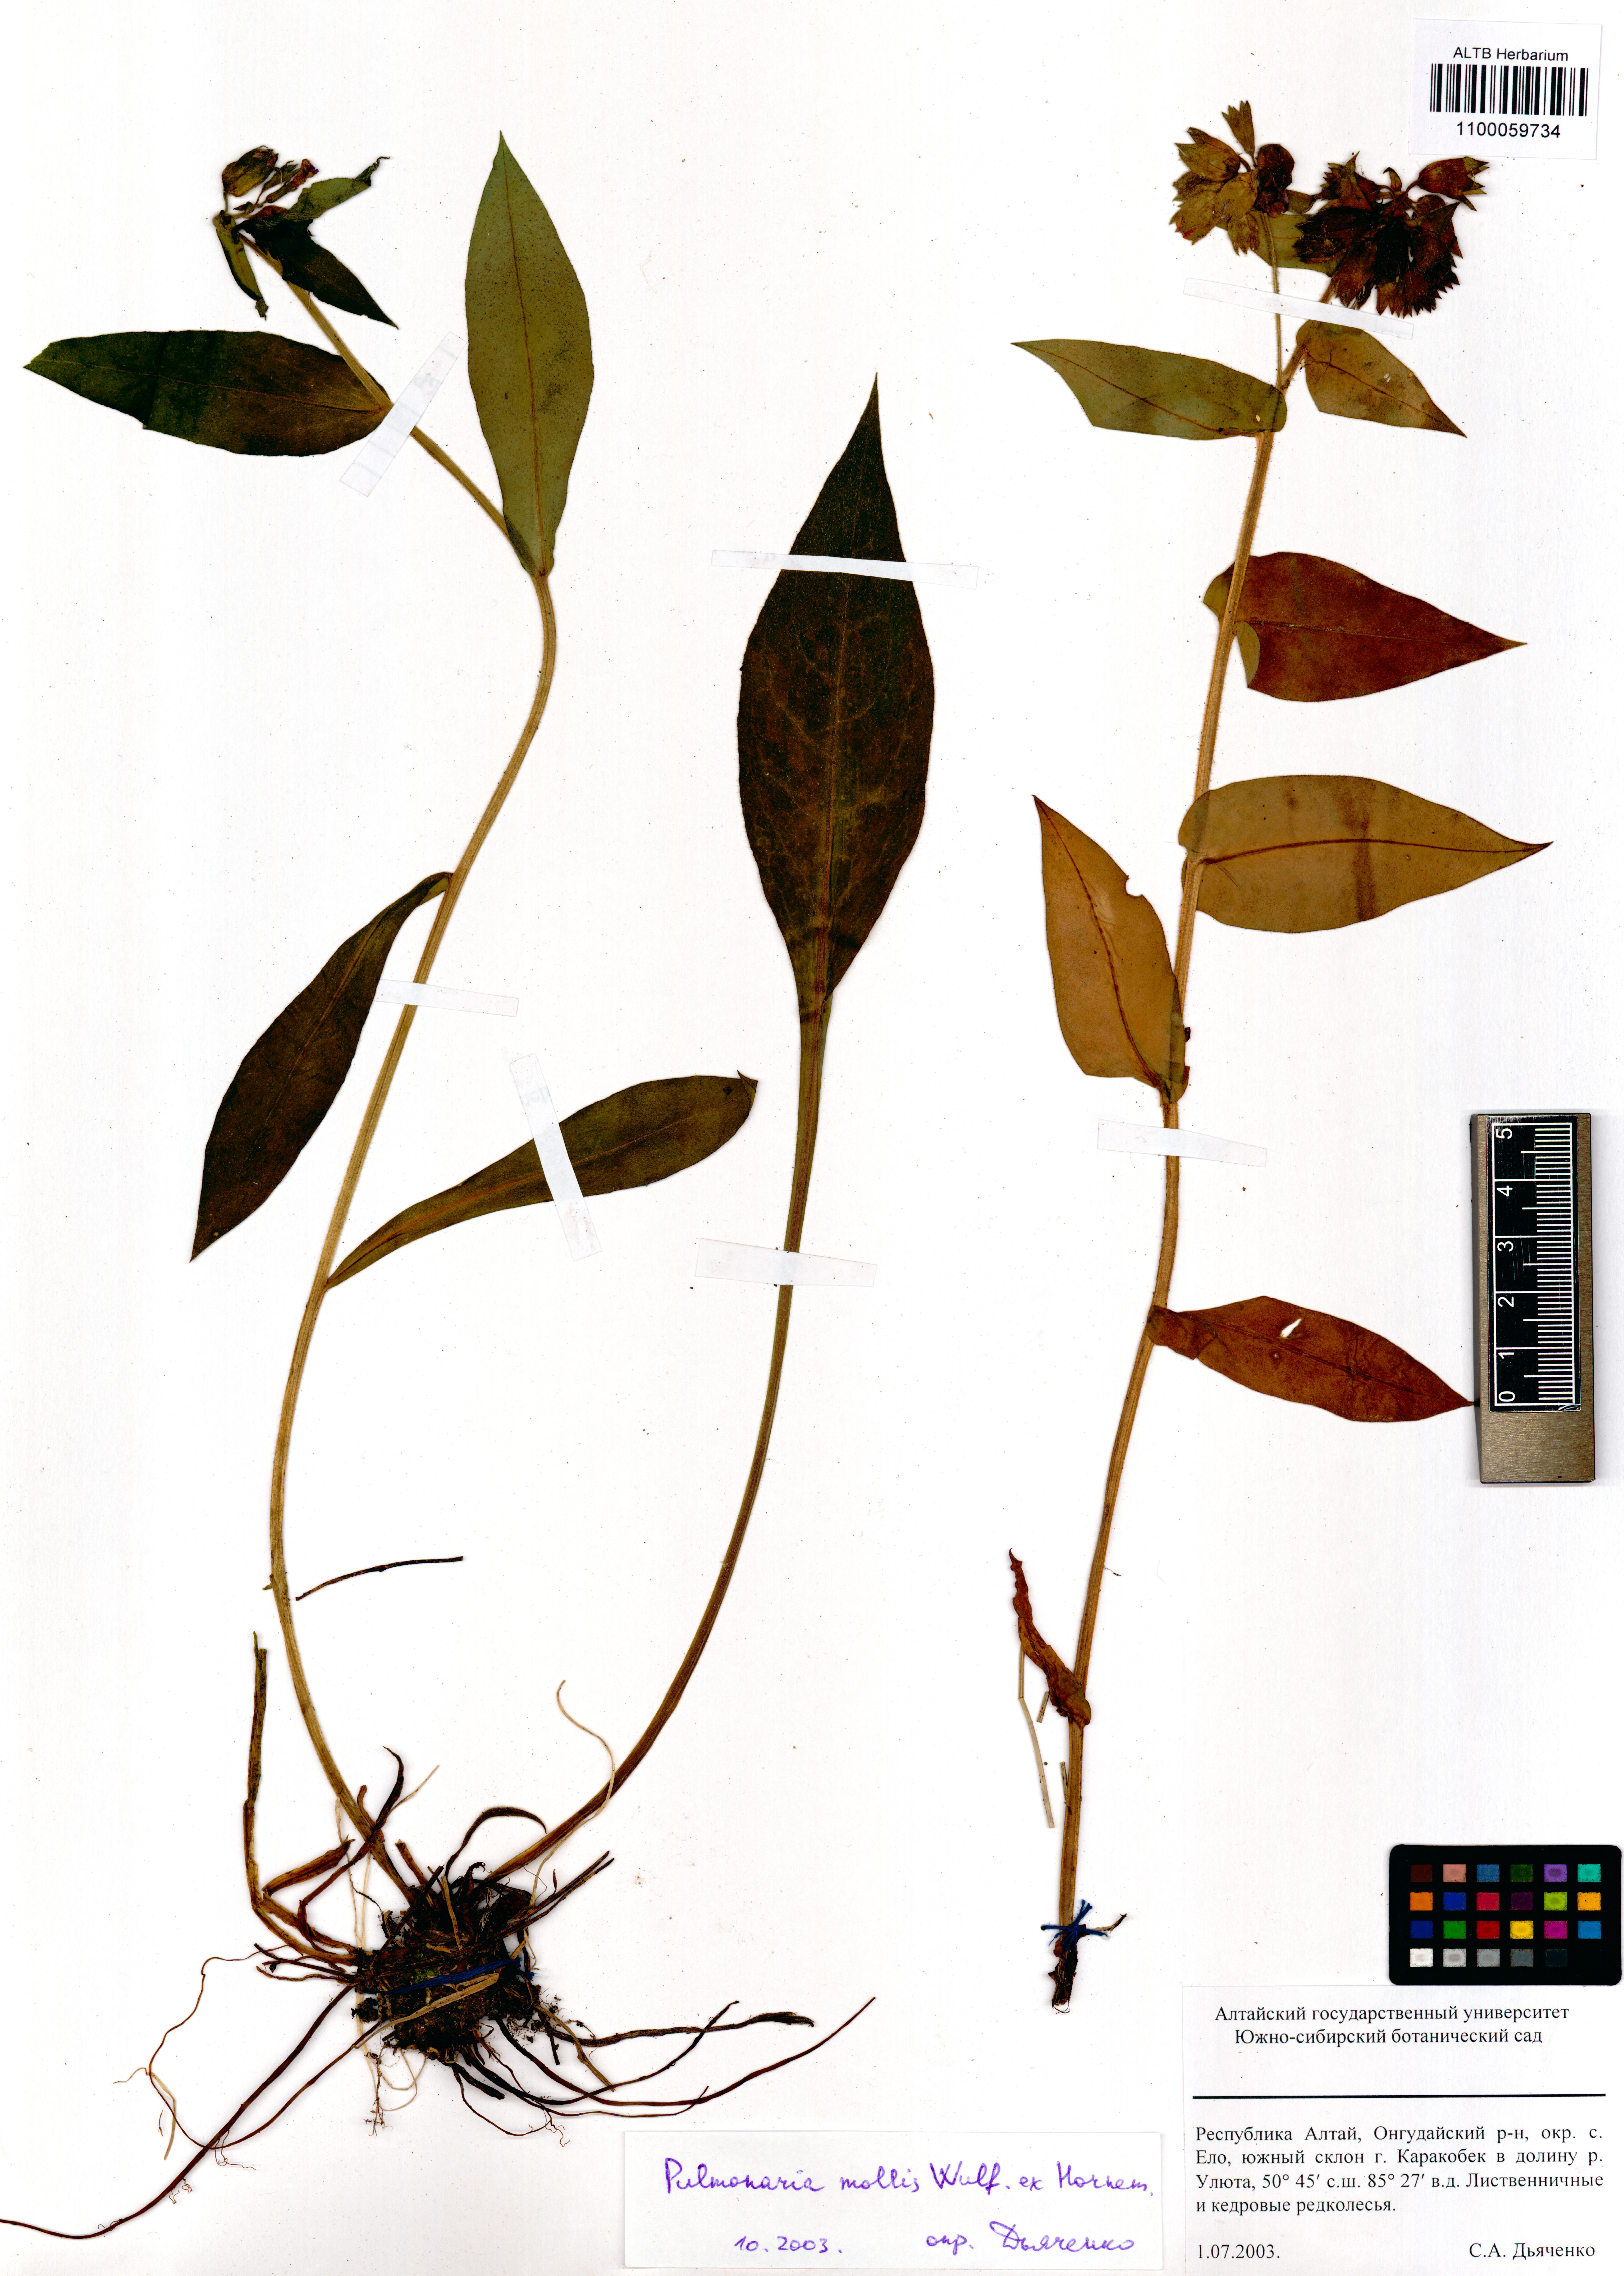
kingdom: Plantae
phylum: Tracheophyta
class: Magnoliopsida
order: Boraginales
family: Boraginaceae
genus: Pulmonaria
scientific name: Pulmonaria mollis
